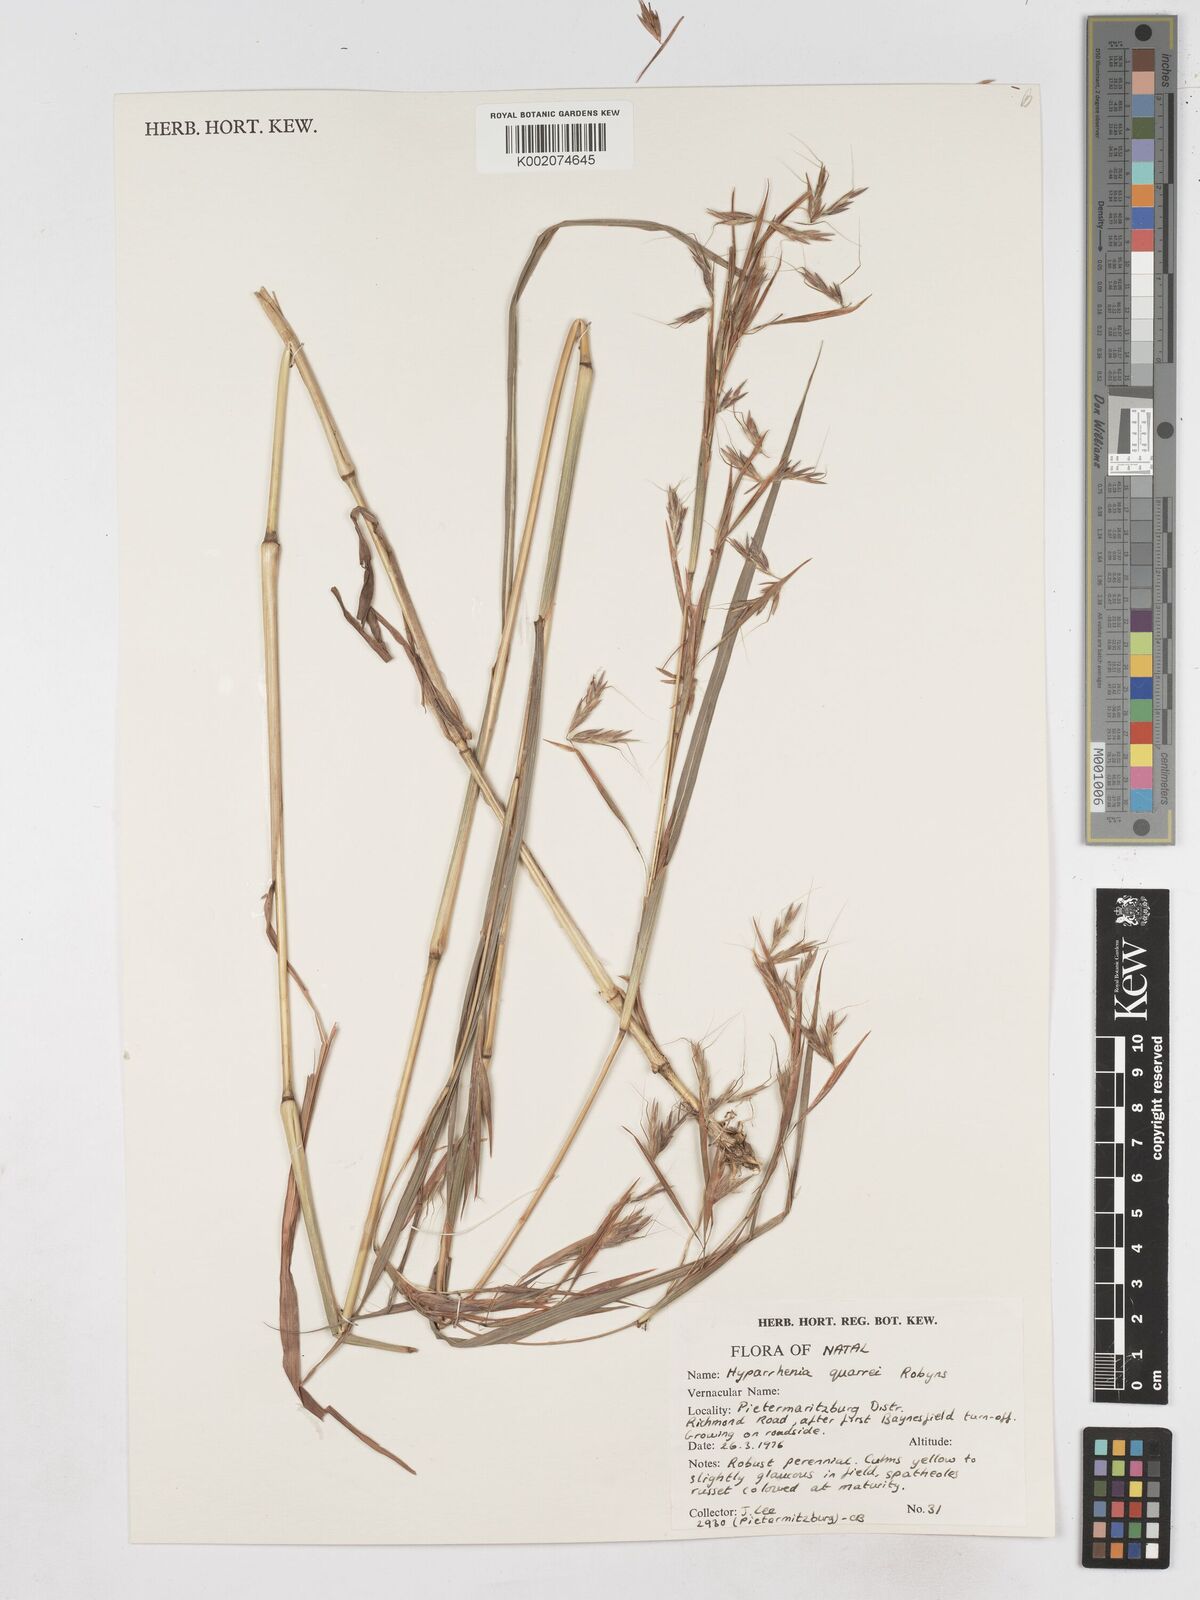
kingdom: Plantae
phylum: Tracheophyta
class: Liliopsida
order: Poales
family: Poaceae
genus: Hyparrhenia
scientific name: Hyparrhenia quarrei
